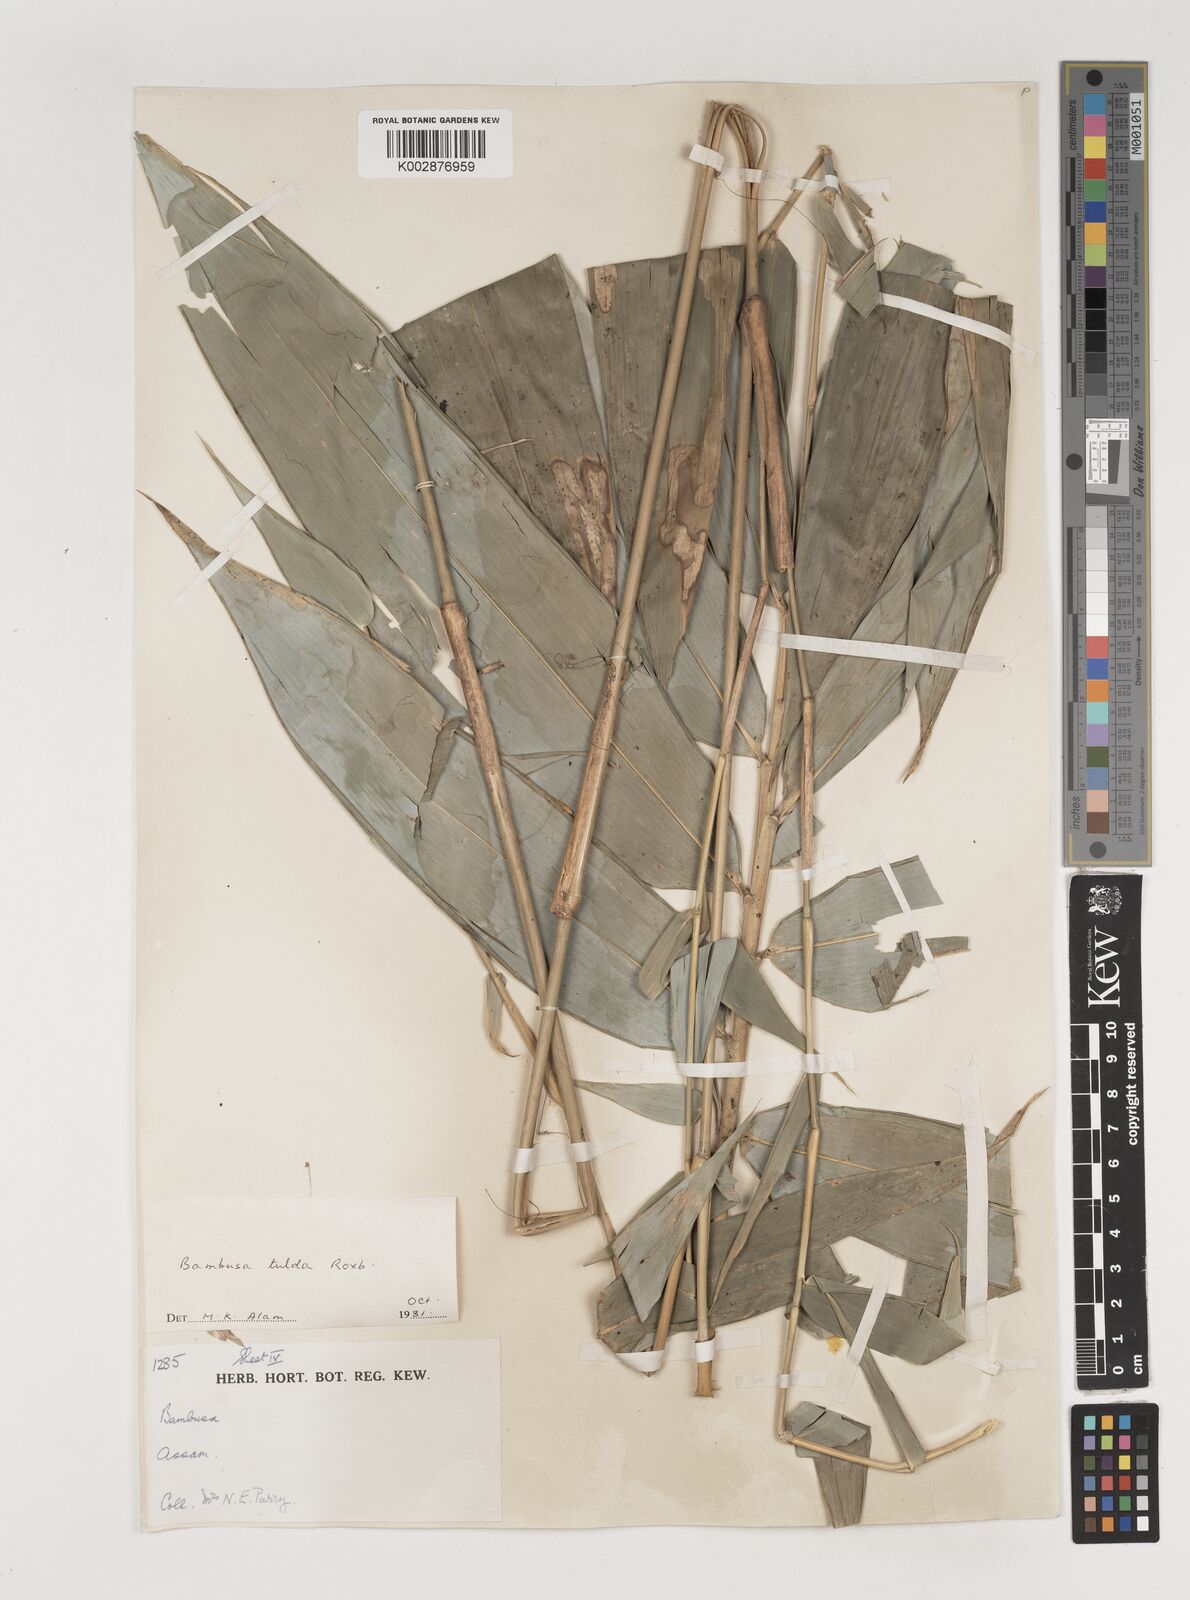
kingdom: Plantae
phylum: Tracheophyta
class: Liliopsida
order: Poales
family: Poaceae
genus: Bambusa
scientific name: Bambusa tulda
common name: Bengal bamboo
